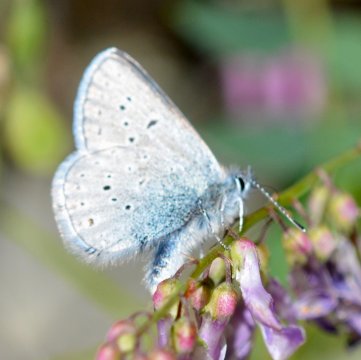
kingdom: Animalia
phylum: Arthropoda
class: Insecta
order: Lepidoptera
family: Lycaenidae
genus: Plebejus
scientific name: Plebejus saepiolus
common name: Greenish Blue
